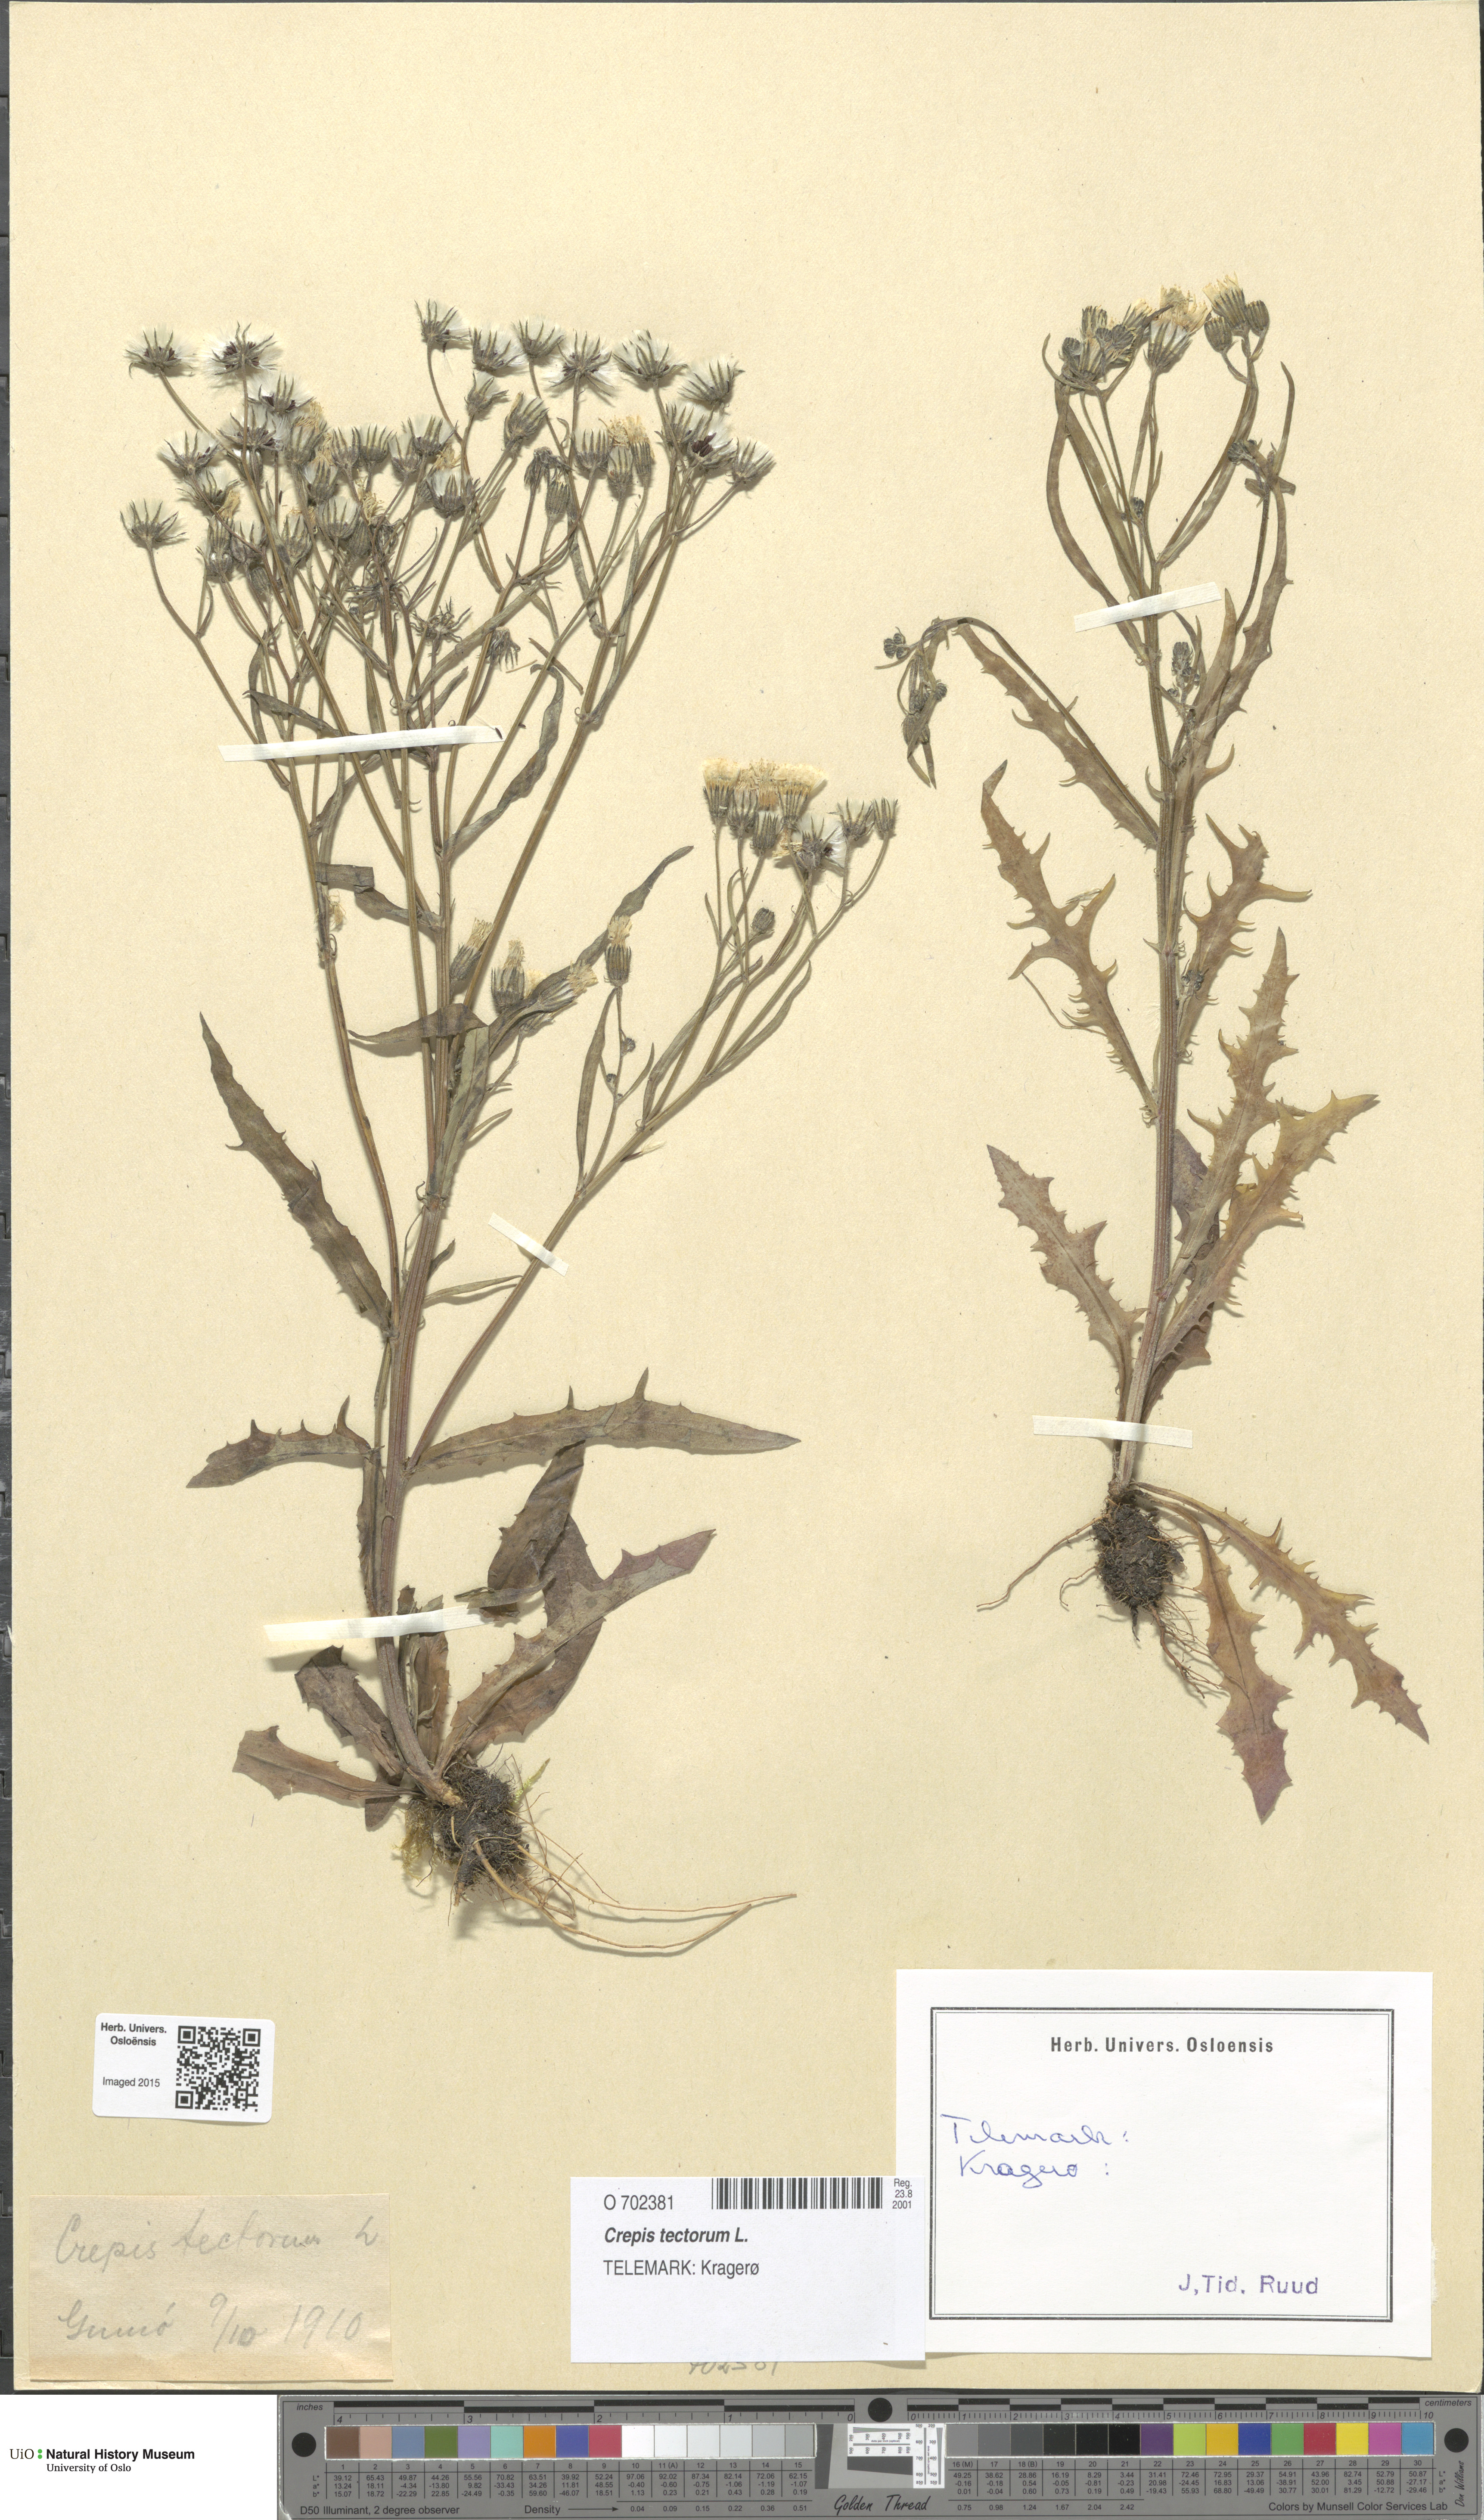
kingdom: Plantae
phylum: Tracheophyta
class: Magnoliopsida
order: Asterales
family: Asteraceae
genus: Crepis
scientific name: Crepis tectorum
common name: Narrow-leaved hawk's-beard
